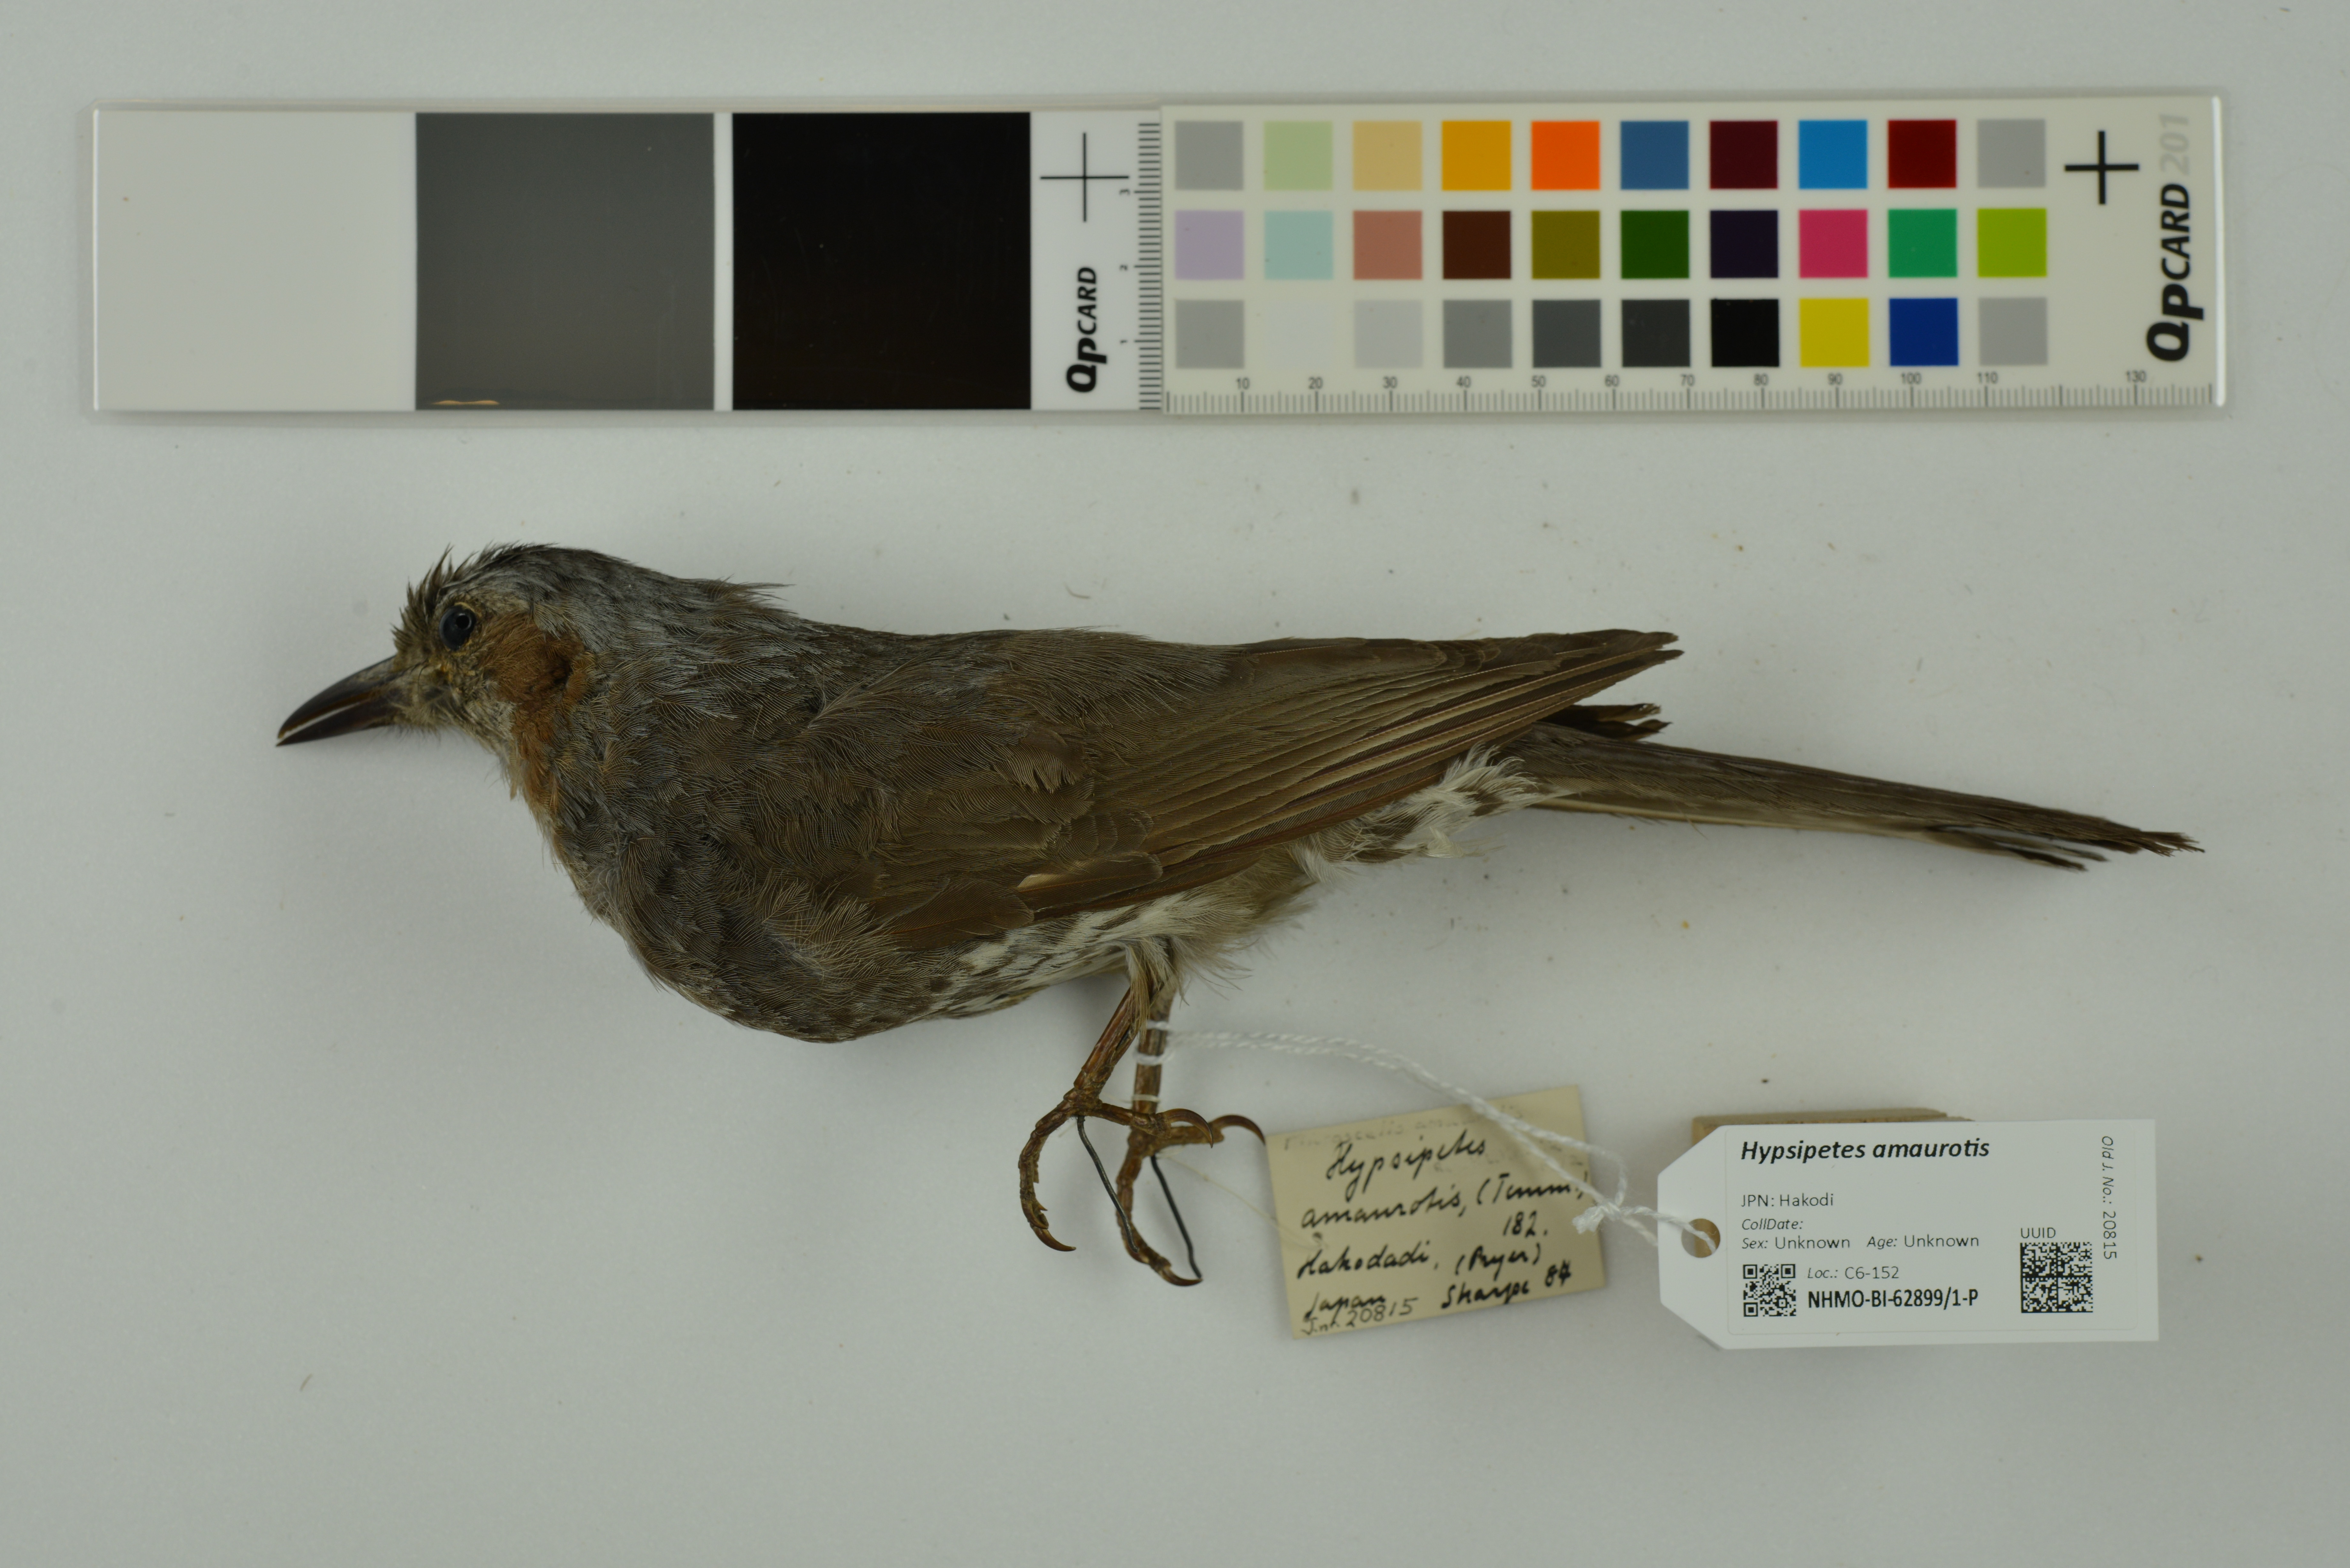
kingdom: Animalia
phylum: Chordata
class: Aves
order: Passeriformes
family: Pycnonotidae
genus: Hypsipetes
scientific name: Hypsipetes amaurotis
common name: Brown-eared bulbul
